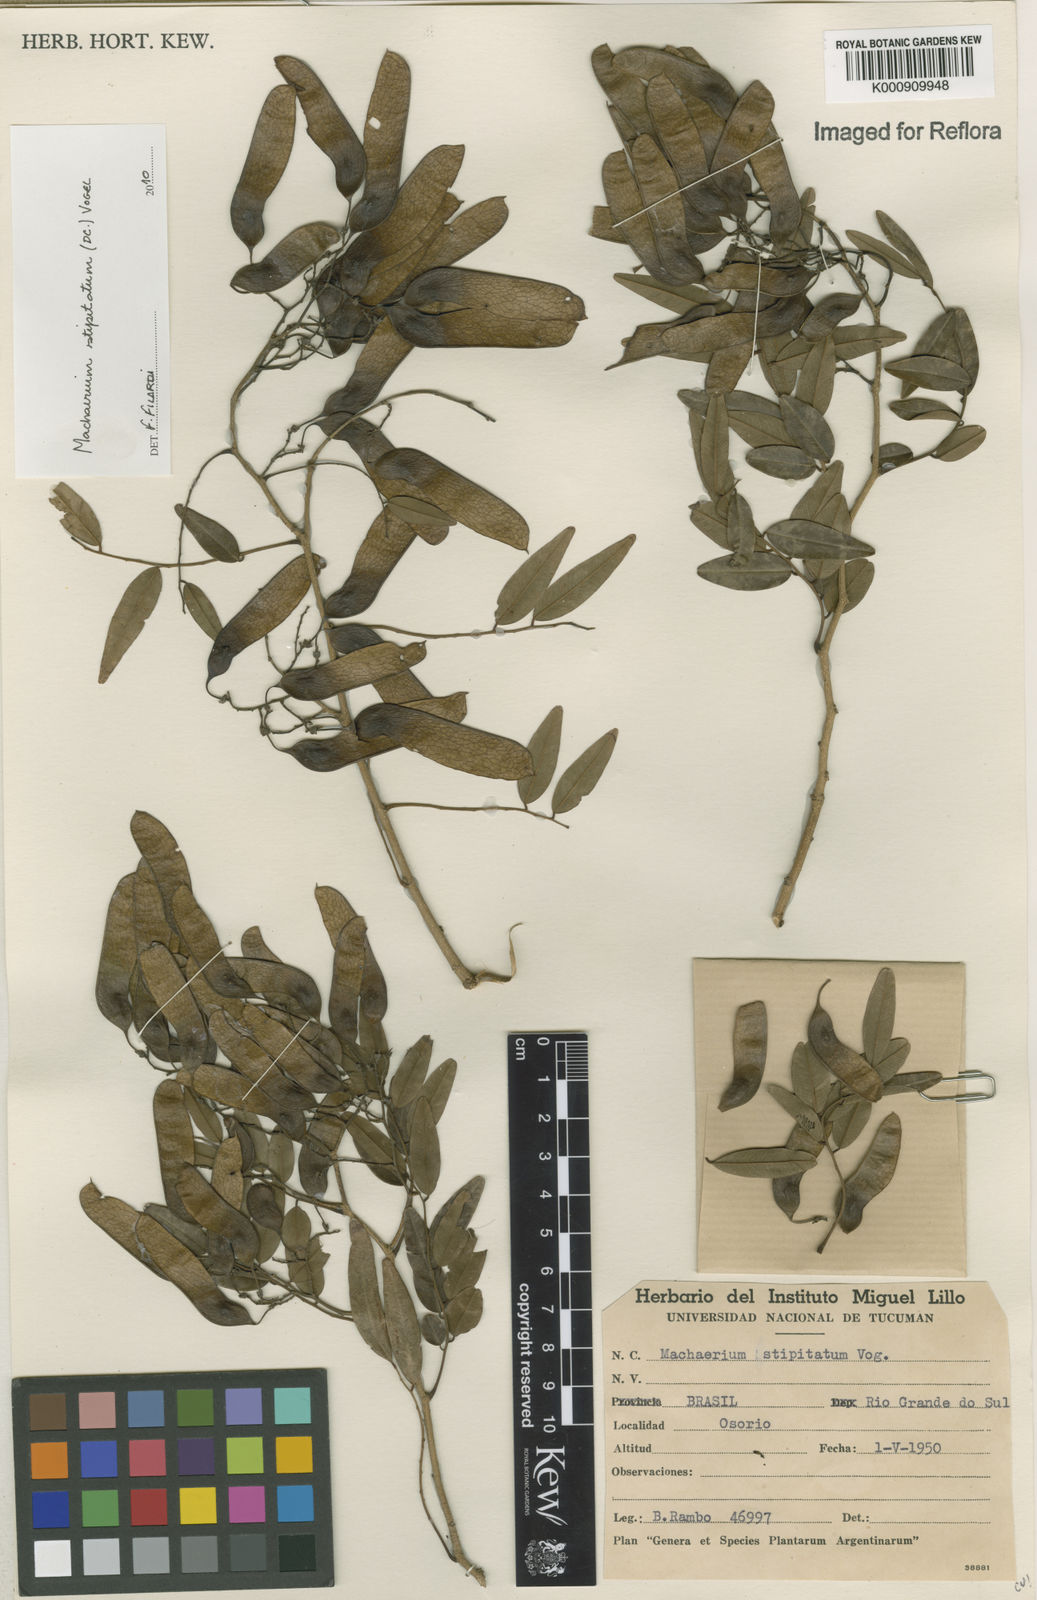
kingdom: Plantae
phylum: Tracheophyta
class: Magnoliopsida
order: Fabales
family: Fabaceae
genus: Machaerium
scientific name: Machaerium stipitatum
